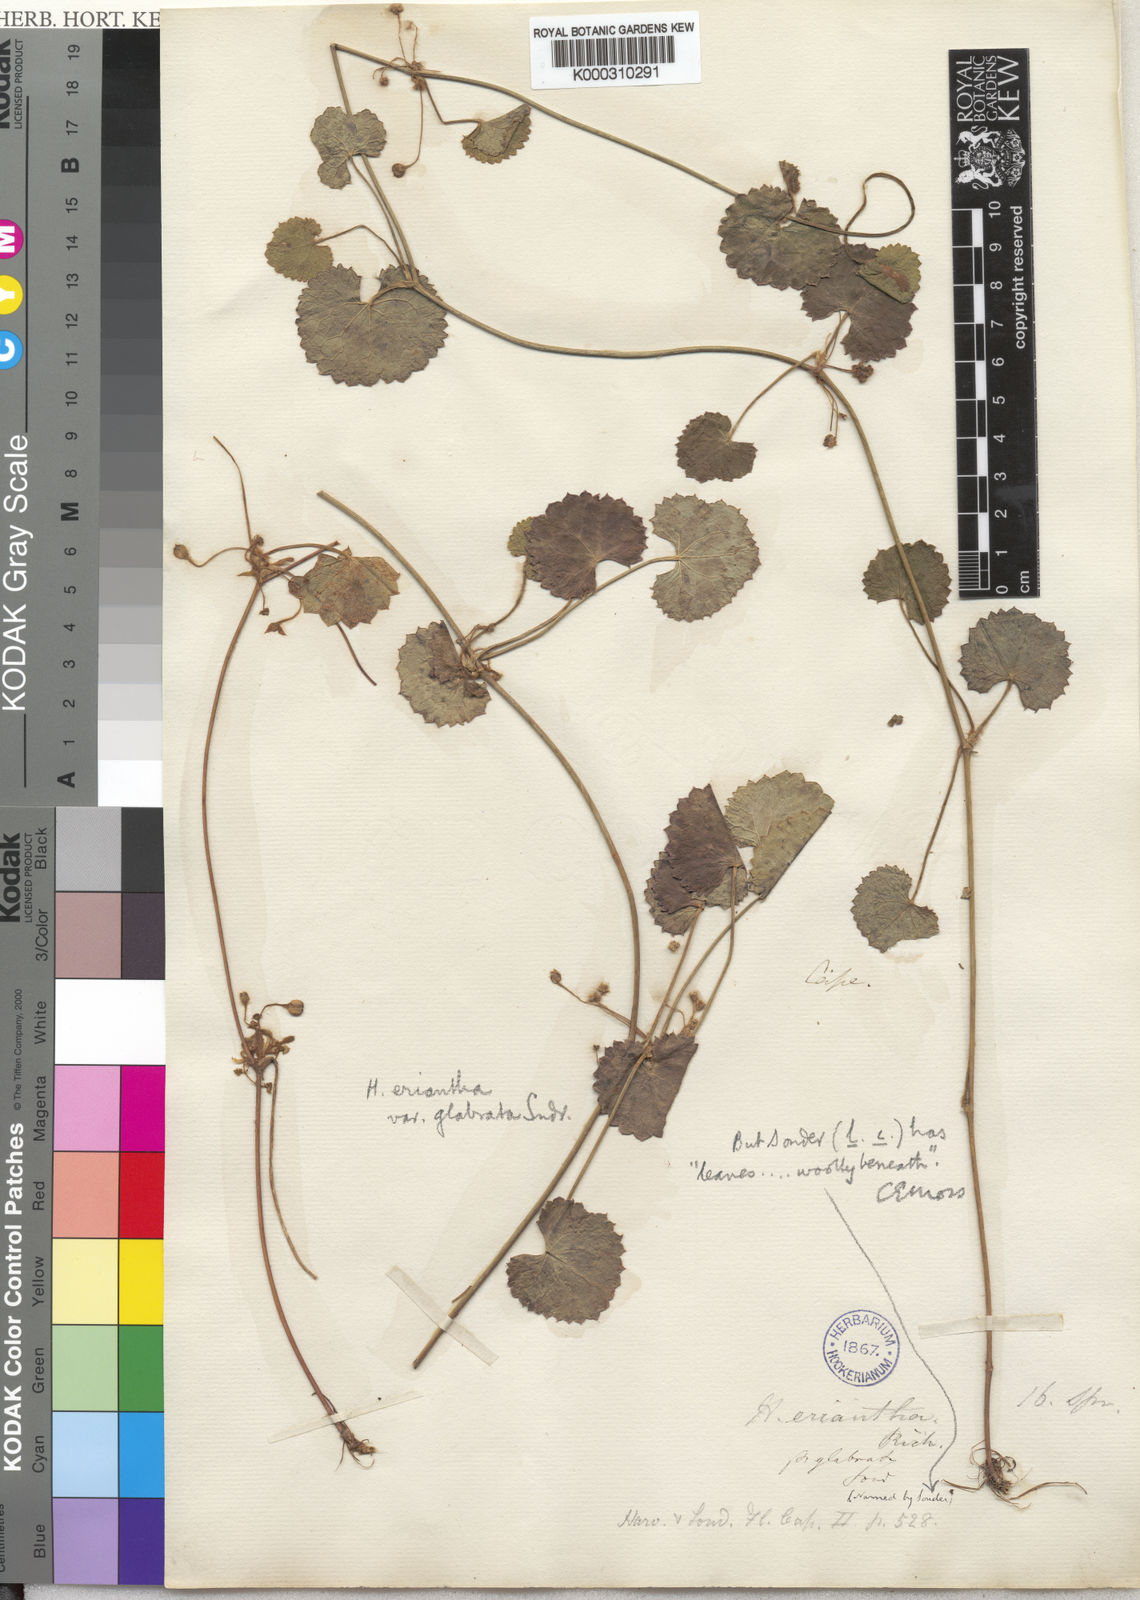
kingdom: Plantae
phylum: Tracheophyta
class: Magnoliopsida
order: Apiales
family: Apiaceae
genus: Centella
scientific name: Centella eriantha
